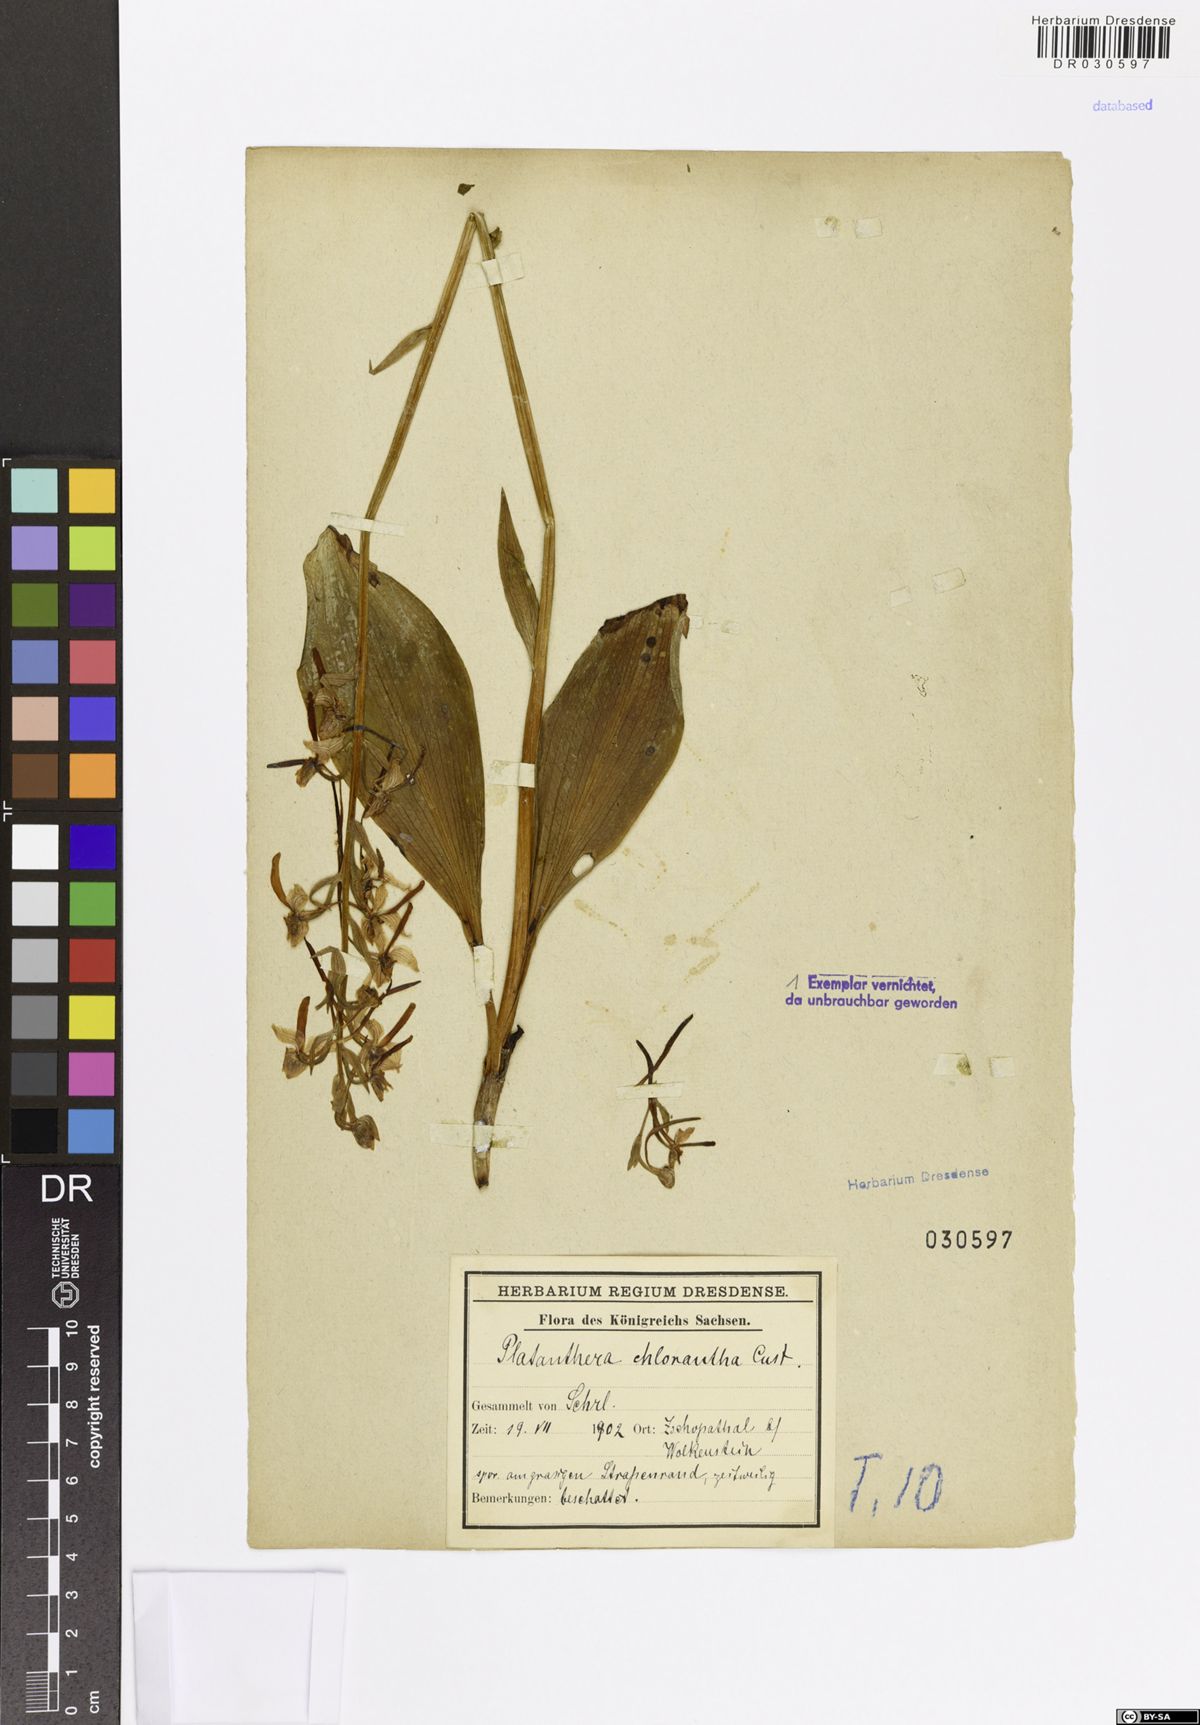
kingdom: Plantae
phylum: Tracheophyta
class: Liliopsida
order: Asparagales
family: Orchidaceae
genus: Platanthera
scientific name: Platanthera chlorantha
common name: Greater butterfly-orchid
